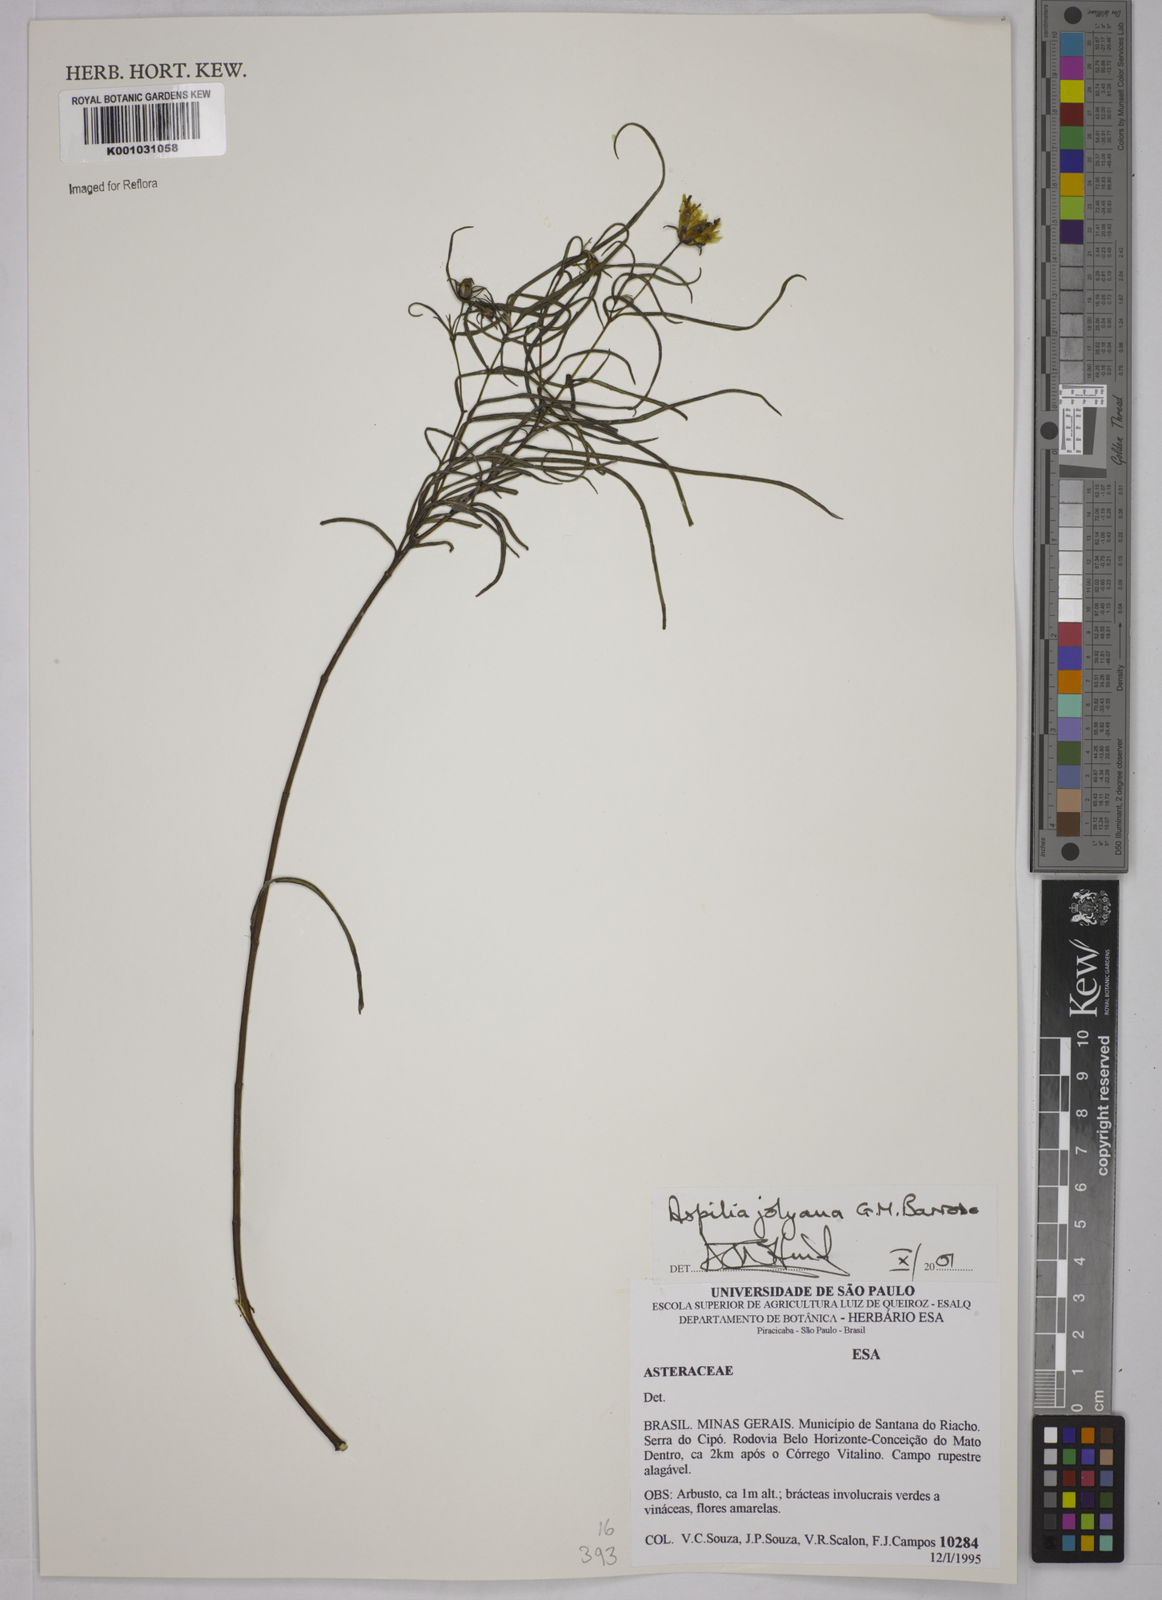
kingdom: Plantae
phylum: Tracheophyta
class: Magnoliopsida
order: Asterales
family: Asteraceae
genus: Aspilia
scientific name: Aspilia jolyana
